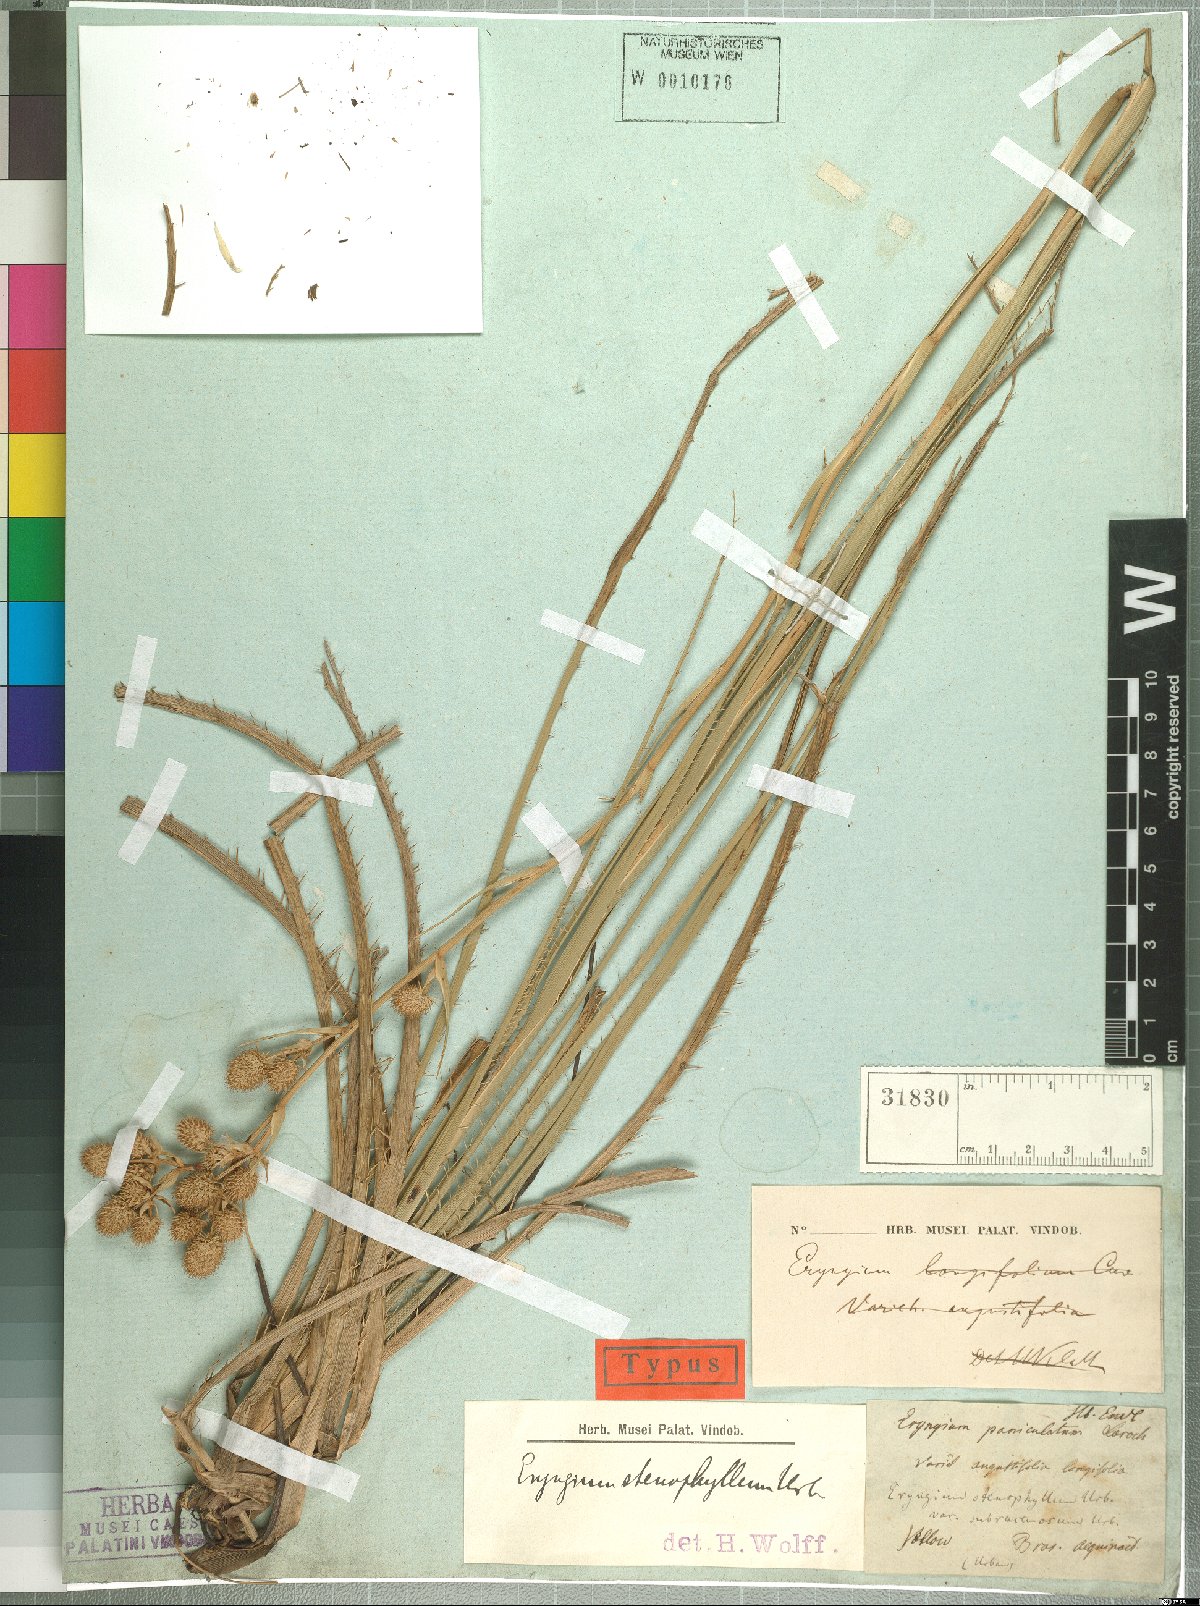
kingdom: Plantae
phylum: Tracheophyta
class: Magnoliopsida
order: Apiales
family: Apiaceae
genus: Eryngium
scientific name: Eryngium stenophyllum
